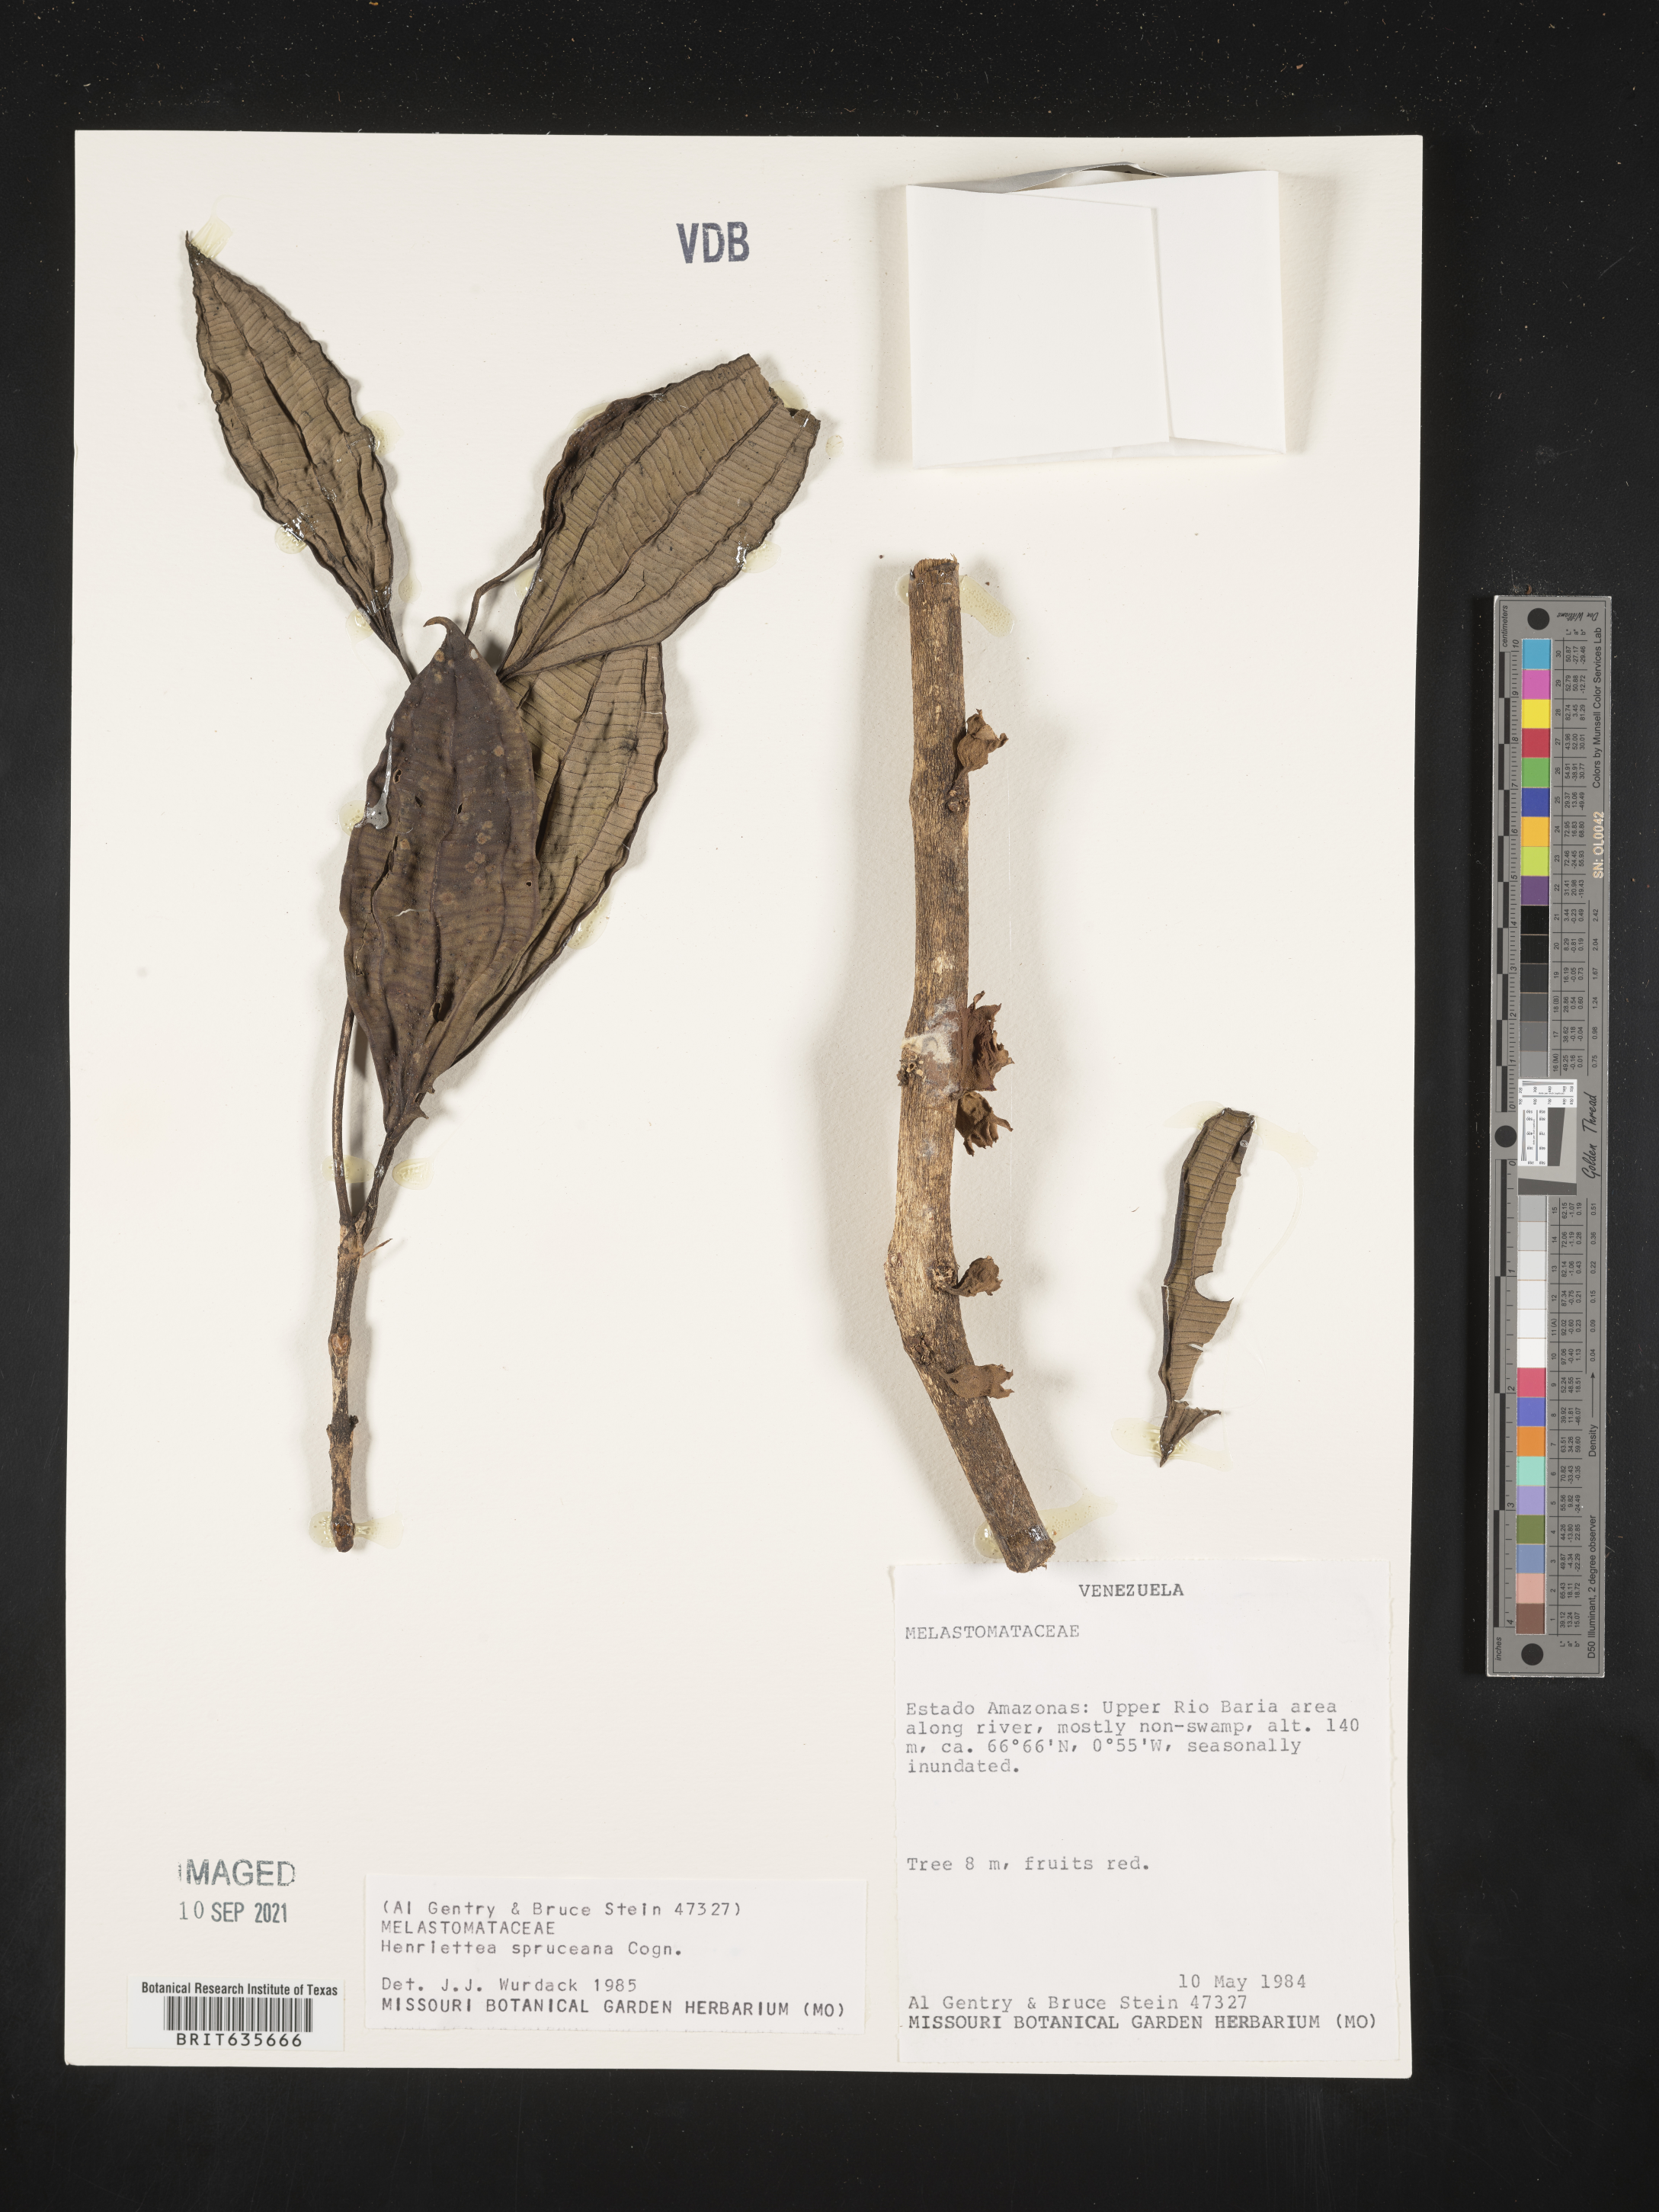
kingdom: Plantae
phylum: Tracheophyta
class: Magnoliopsida
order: Myrtales
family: Melastomataceae
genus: Henriettea
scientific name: Henriettea
